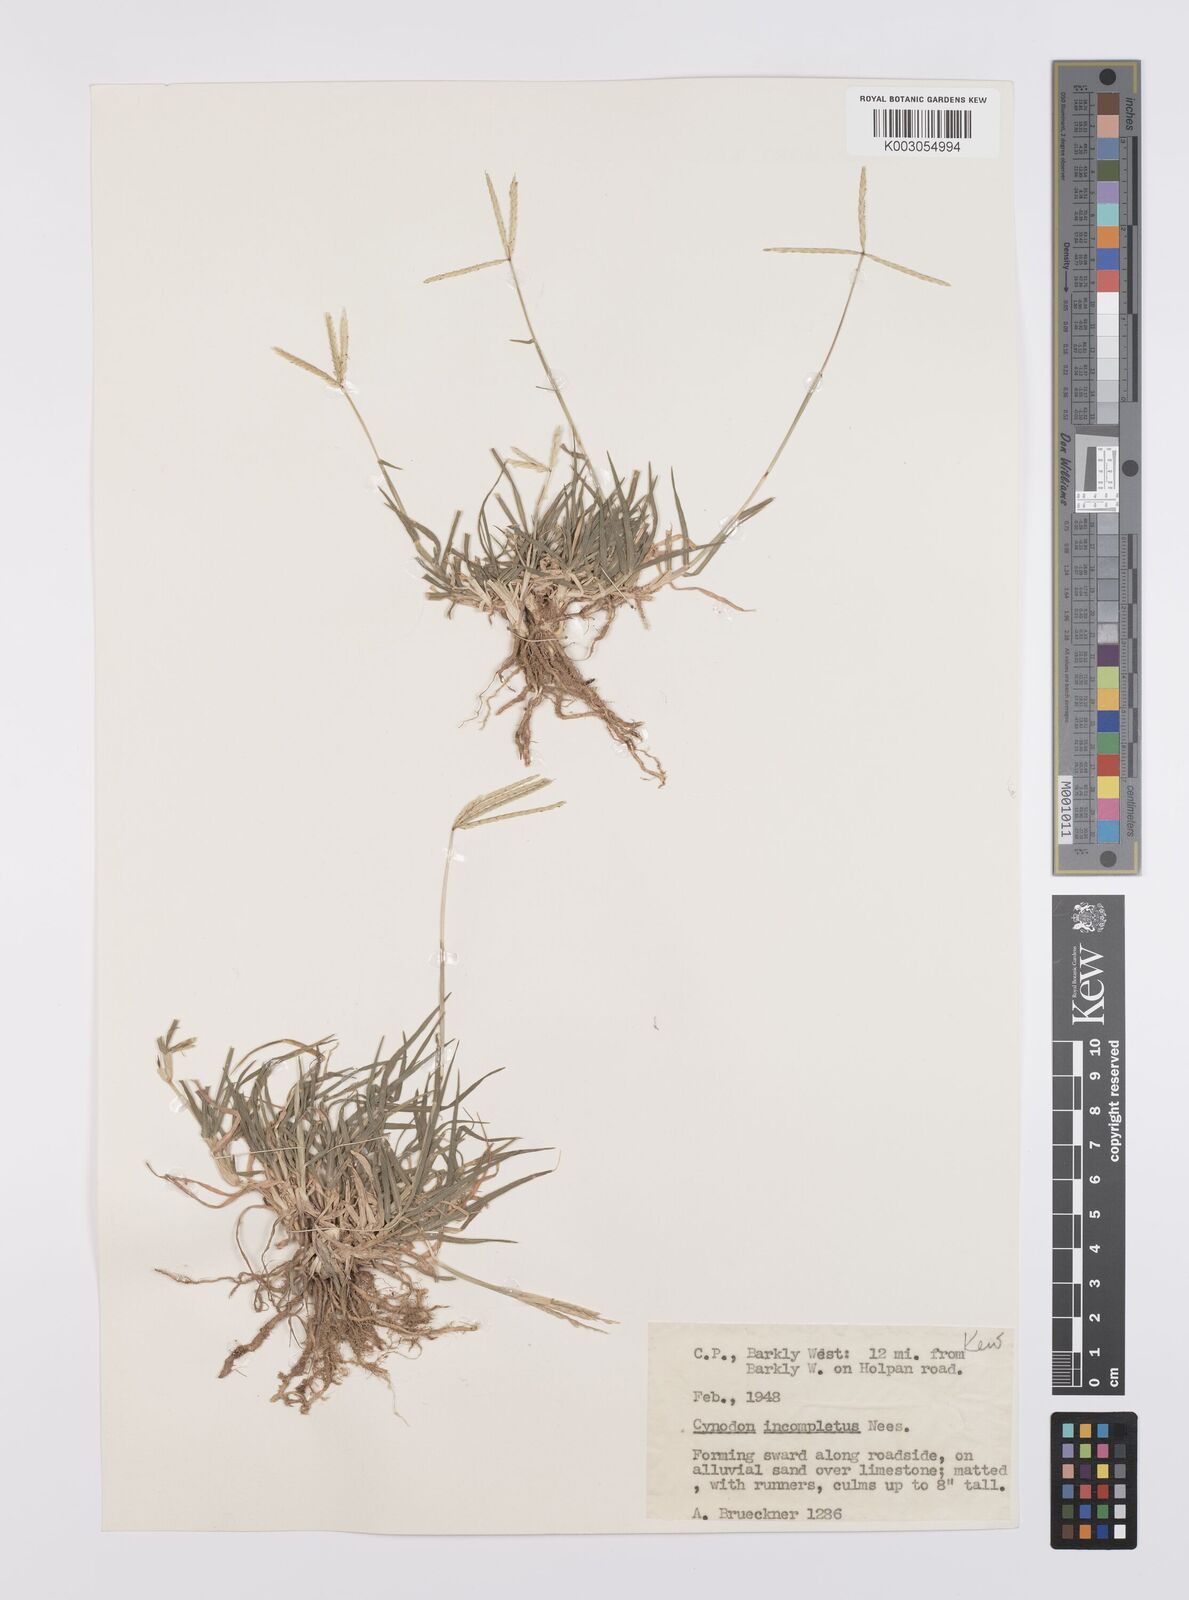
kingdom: Plantae
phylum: Tracheophyta
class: Liliopsida
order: Poales
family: Poaceae
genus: Cynodon
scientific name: Cynodon incompletus
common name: African bermuda-grass
